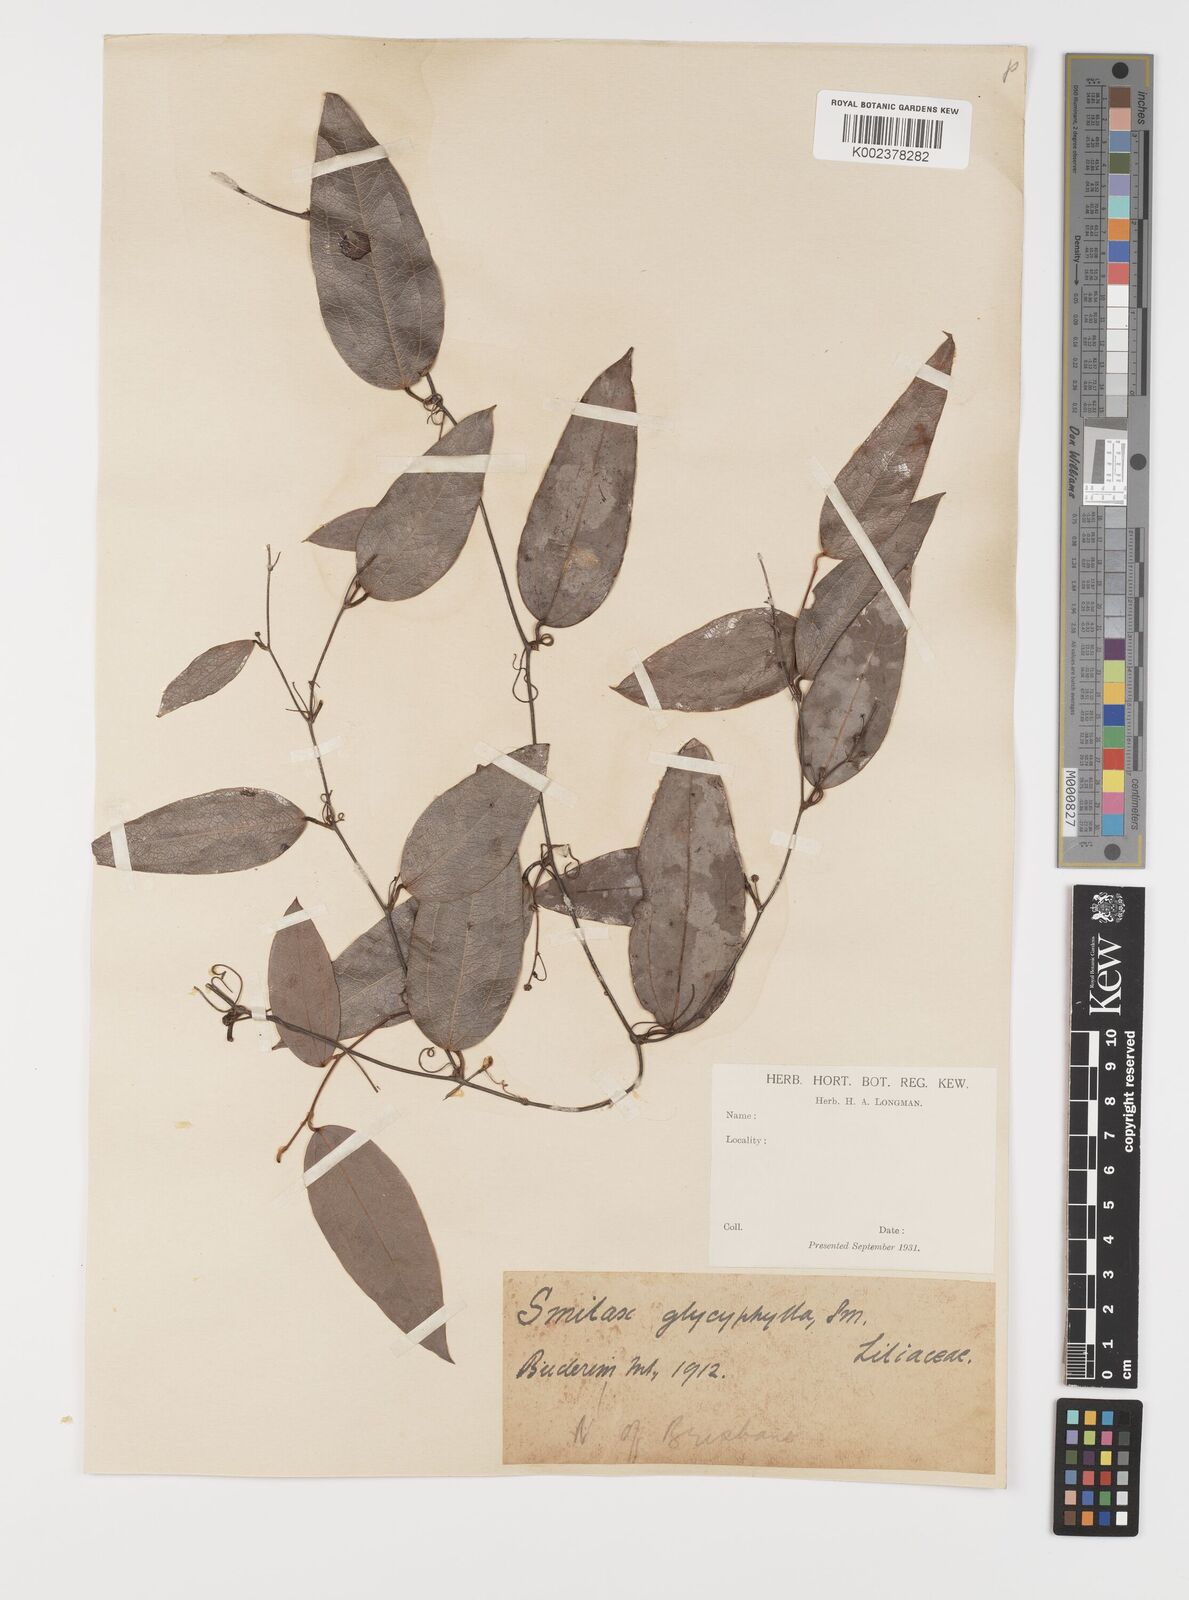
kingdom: Plantae
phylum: Tracheophyta
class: Liliopsida
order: Liliales
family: Smilacaceae
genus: Smilax
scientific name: Smilax leucophylla
